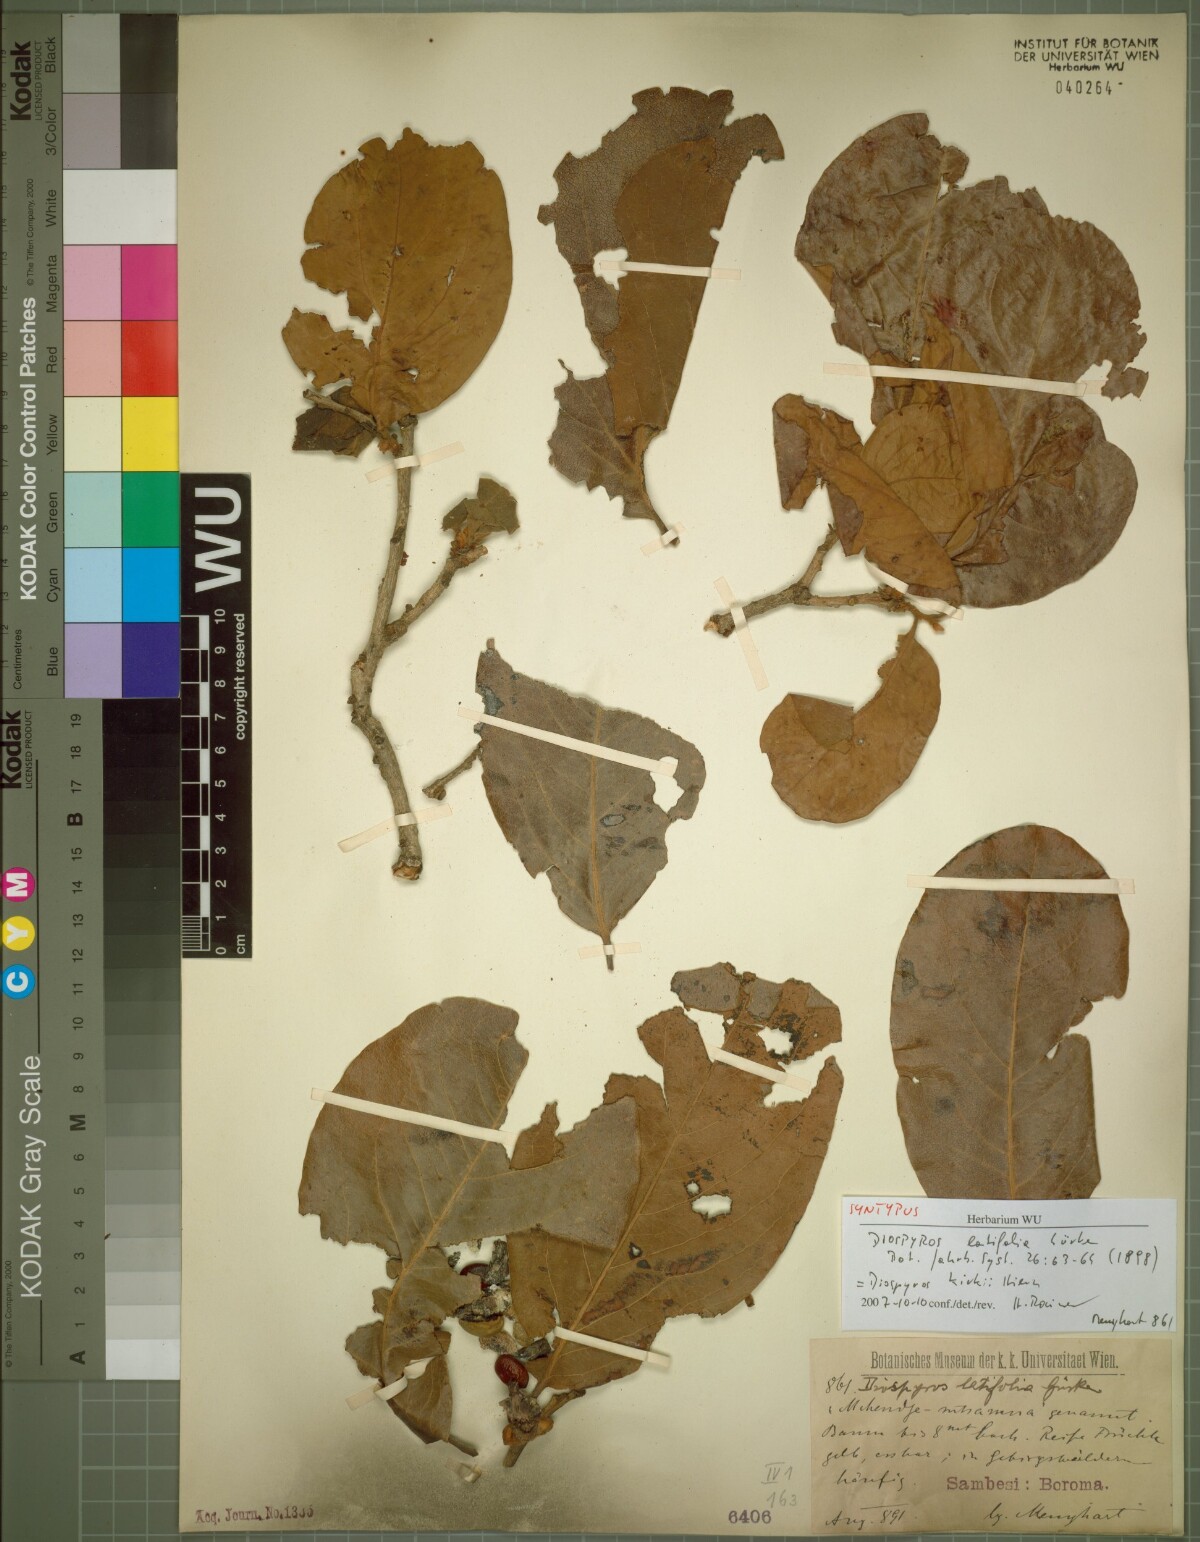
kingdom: Plantae
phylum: Tracheophyta
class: Magnoliopsida
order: Ericales
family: Ebenaceae
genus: Diospyros
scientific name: Diospyros kirkii
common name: Large-leaved jackal berry
